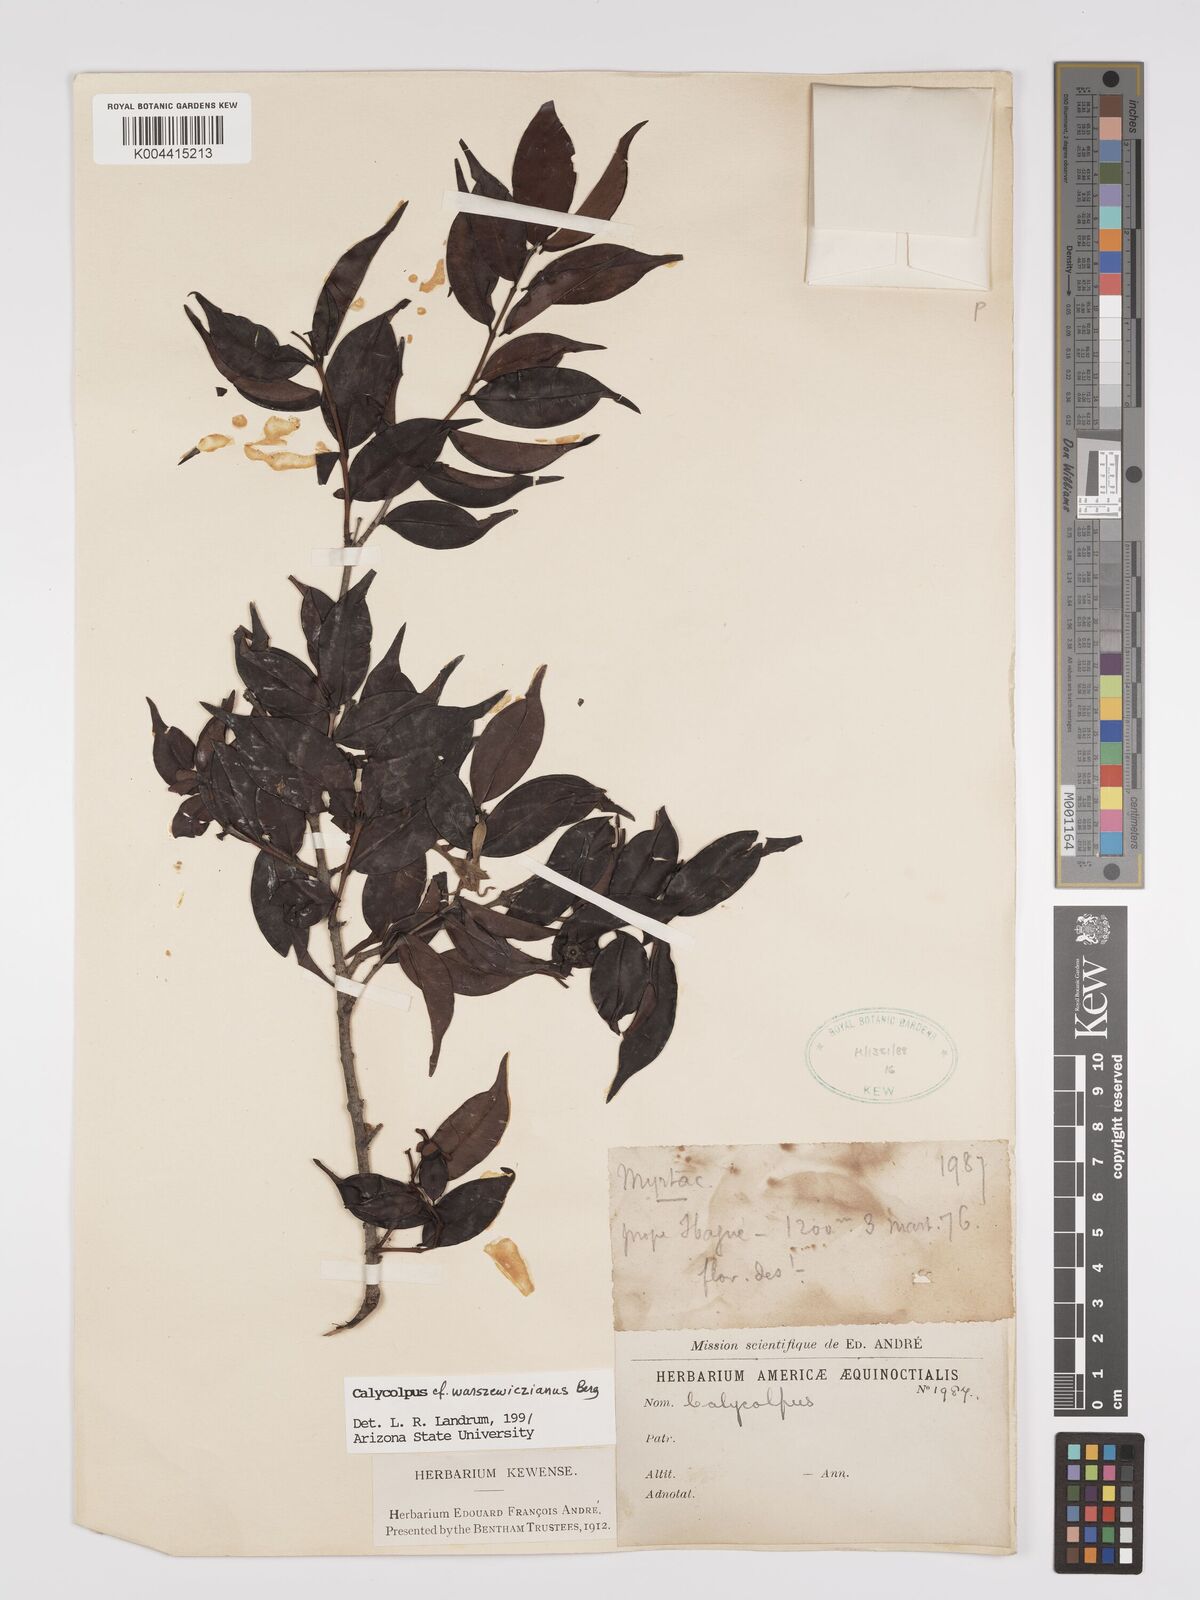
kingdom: Plantae
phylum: Tracheophyta
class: Magnoliopsida
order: Myrtales
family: Myrtaceae
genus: Calycolpus
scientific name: Calycolpus warszewiczianus
